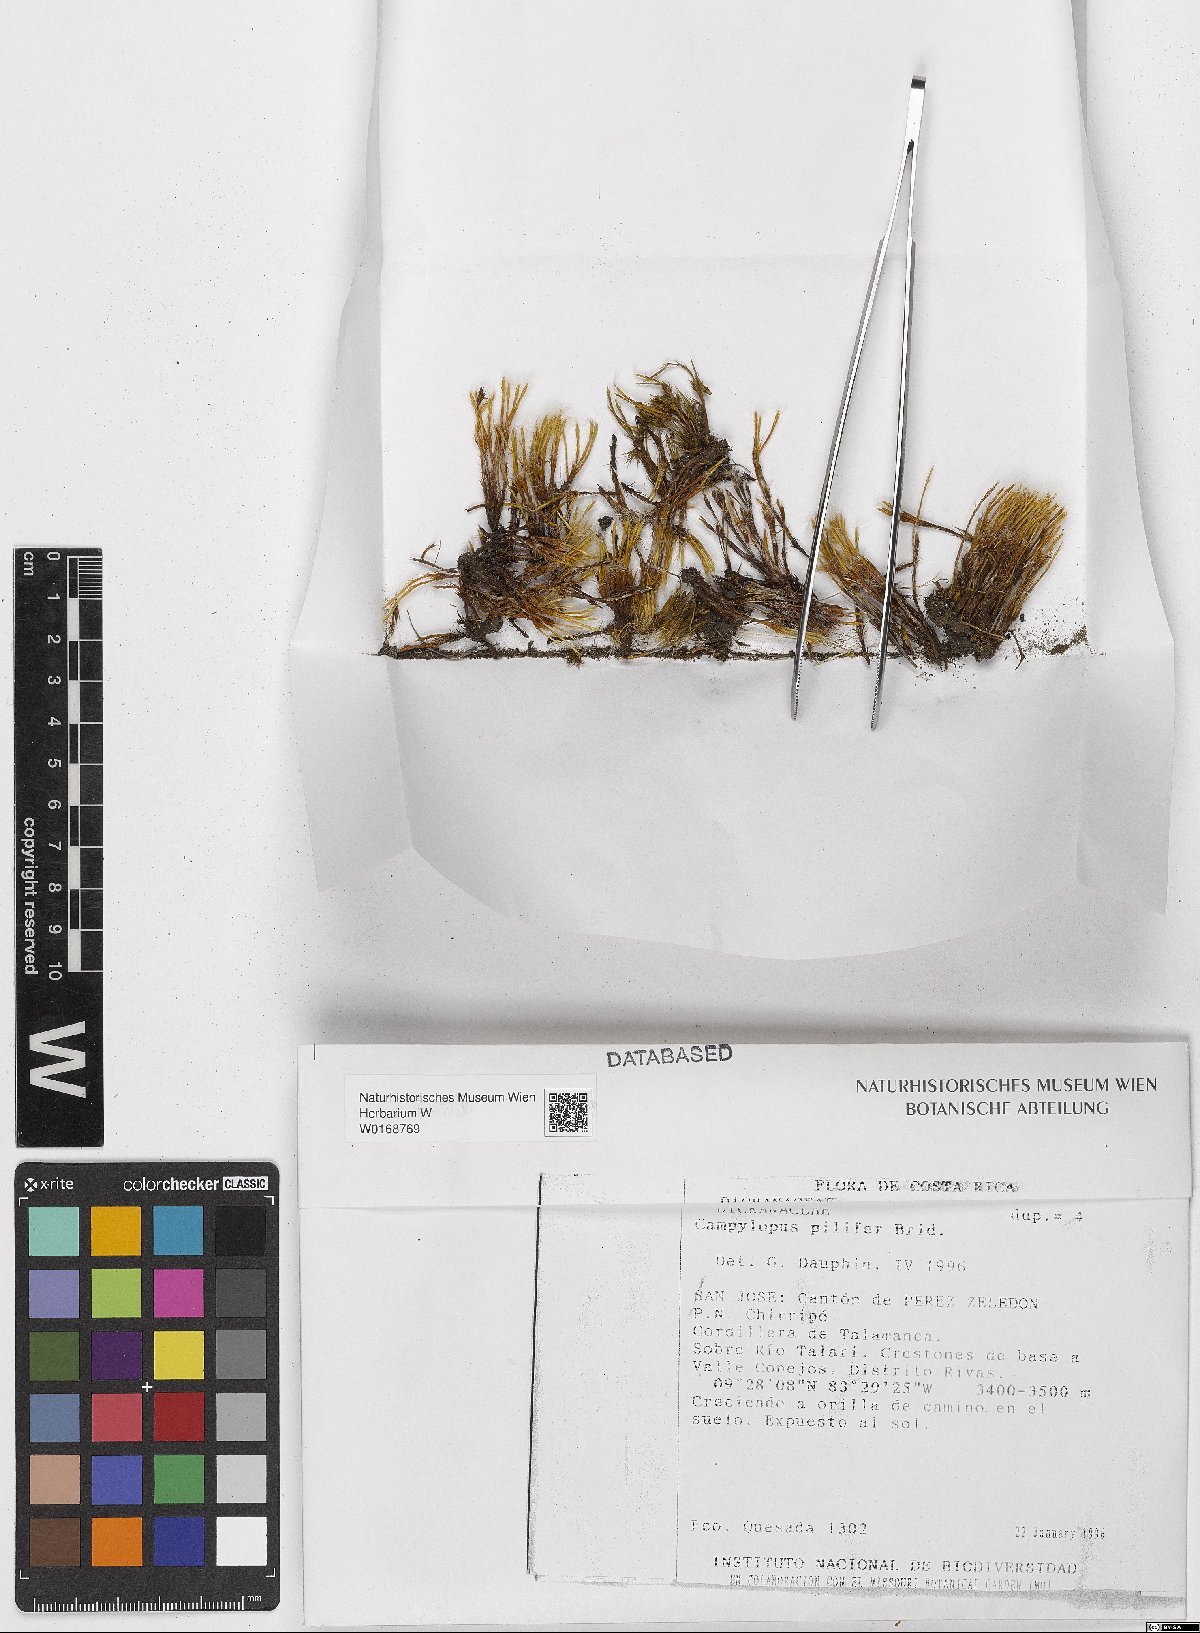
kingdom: Plantae
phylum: Bryophyta
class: Bryopsida
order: Dicranales
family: Leucobryaceae
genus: Campylopus
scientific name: Campylopus pilifer
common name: Campylopus moss
